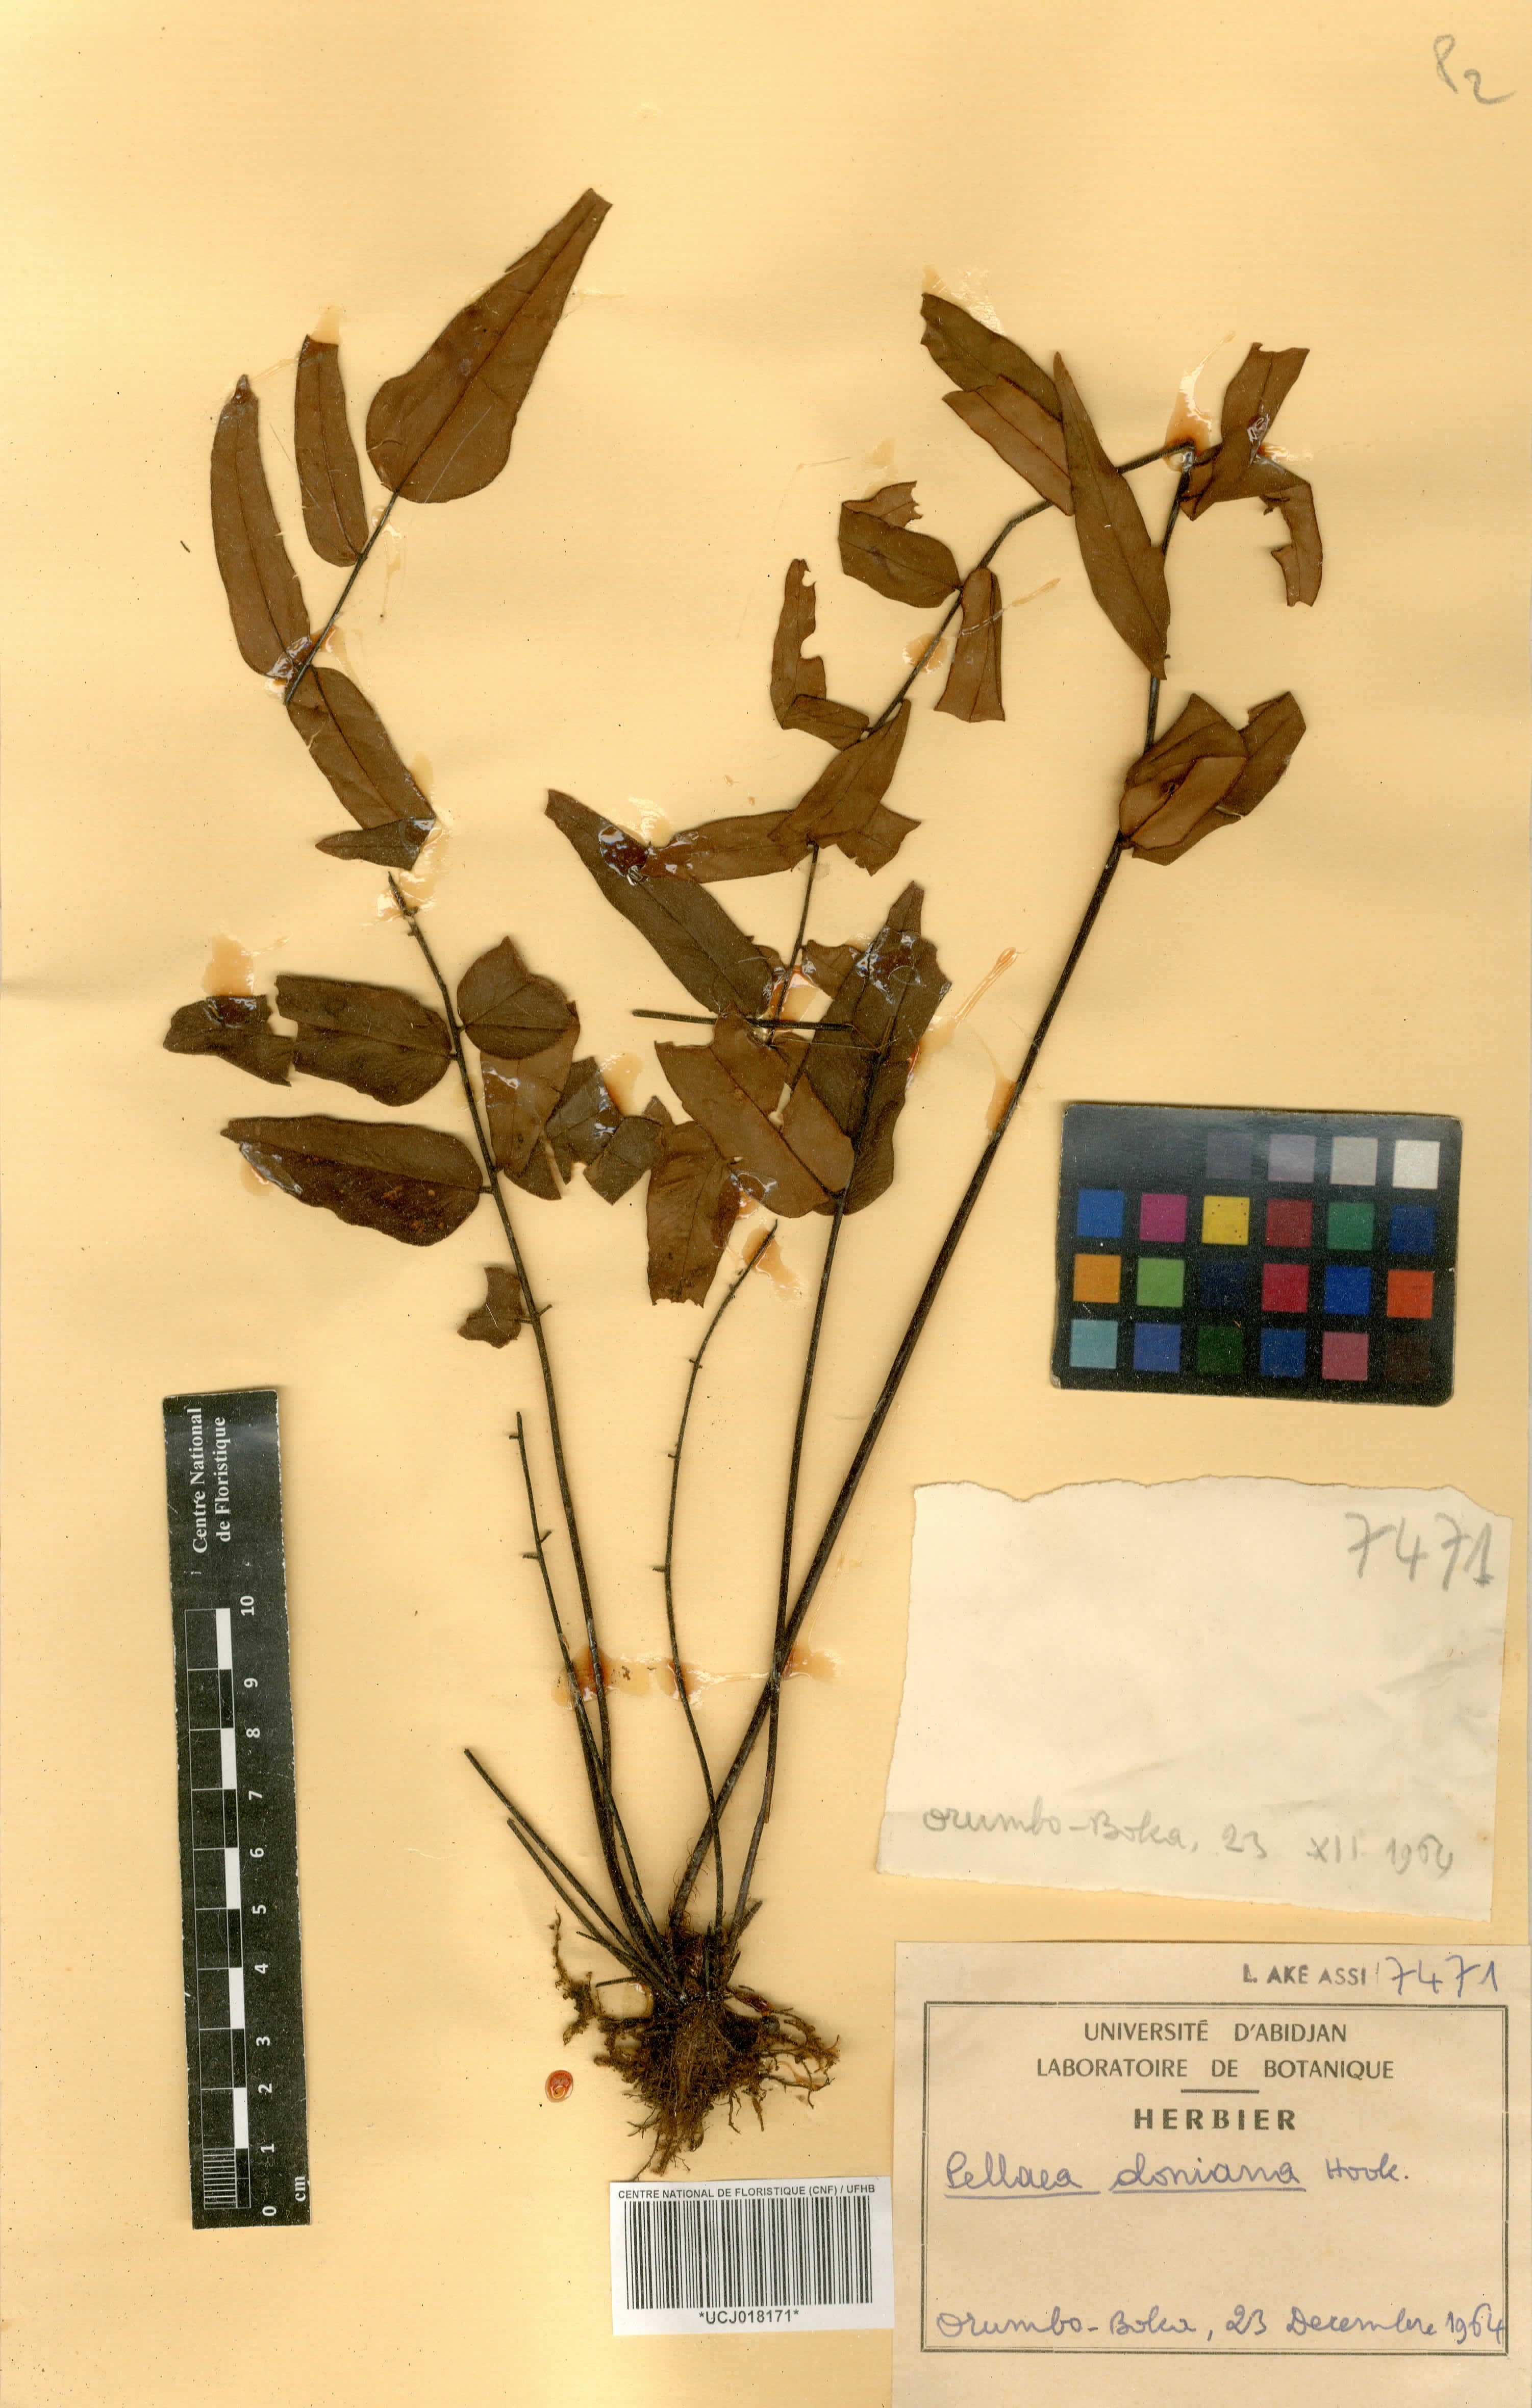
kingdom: Plantae
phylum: Tracheophyta
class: Polypodiopsida
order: Polypodiales
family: Pteridaceae
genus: Pellaea
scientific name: Pellaea doniana
